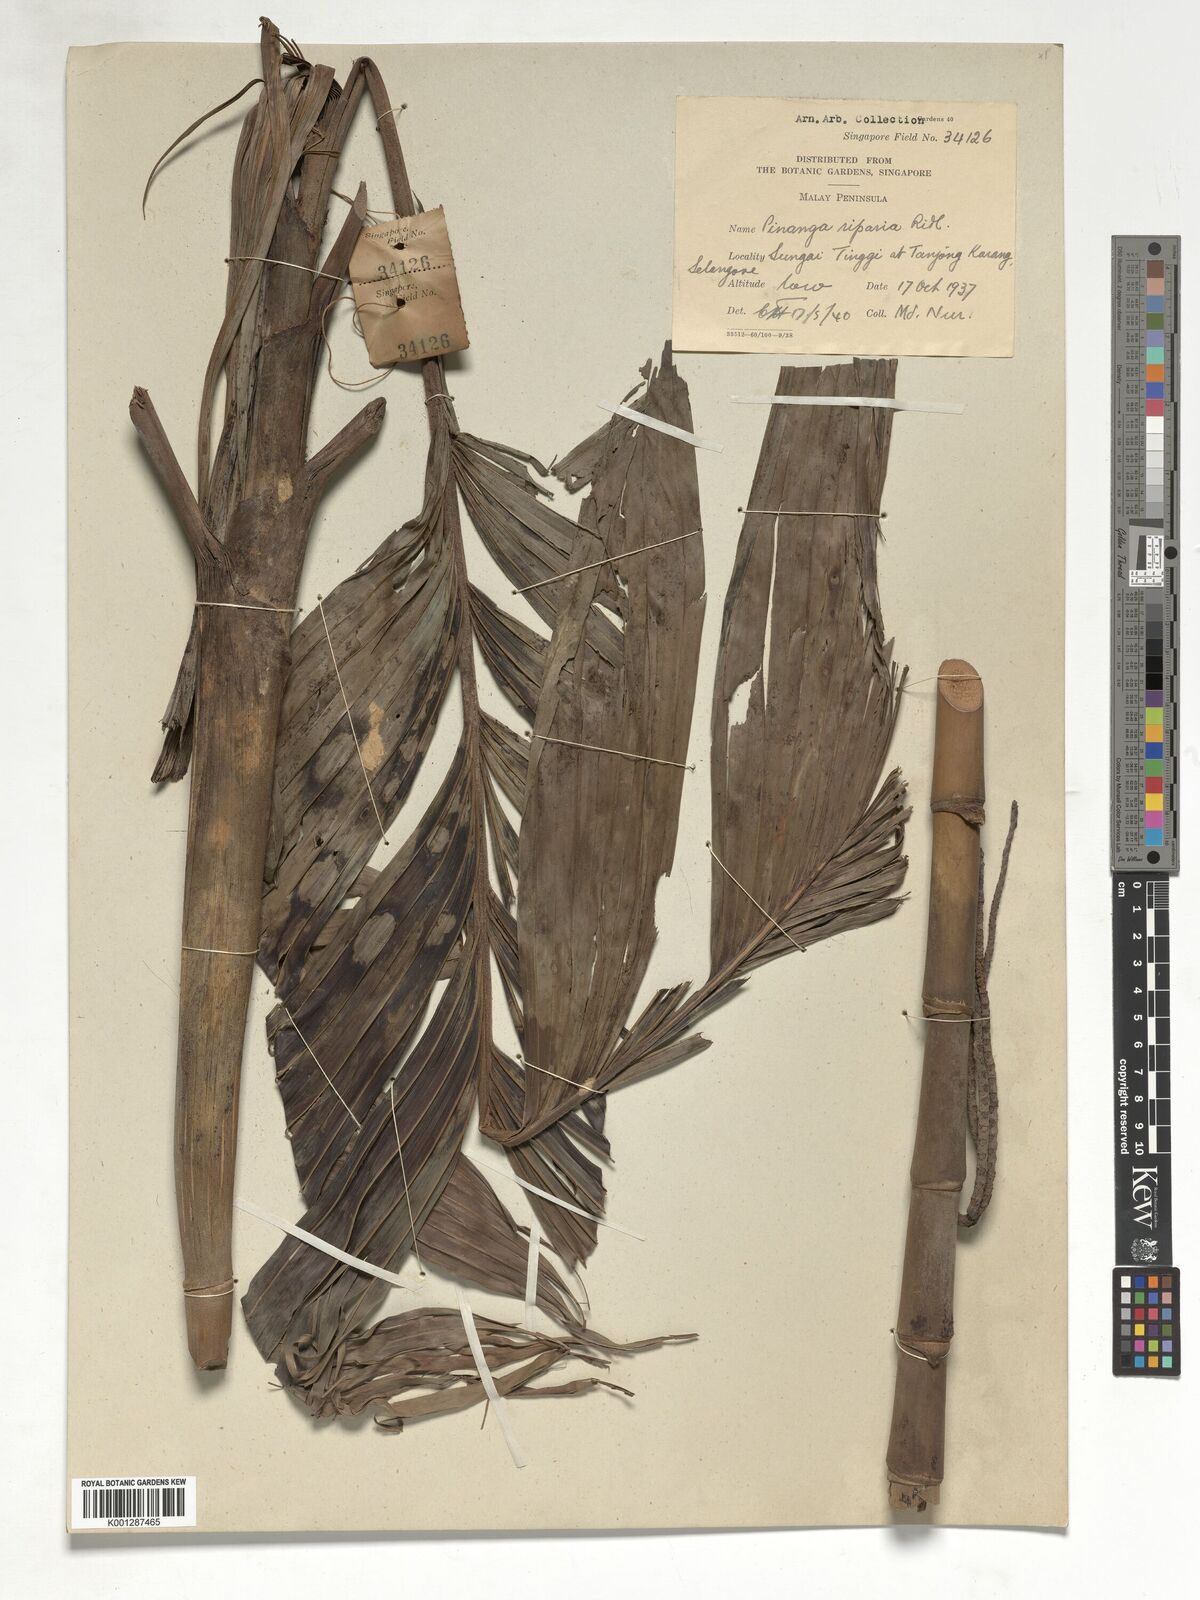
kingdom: Plantae
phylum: Tracheophyta
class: Liliopsida
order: Arecales
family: Arecaceae
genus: Pinanga
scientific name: Pinanga riparia
